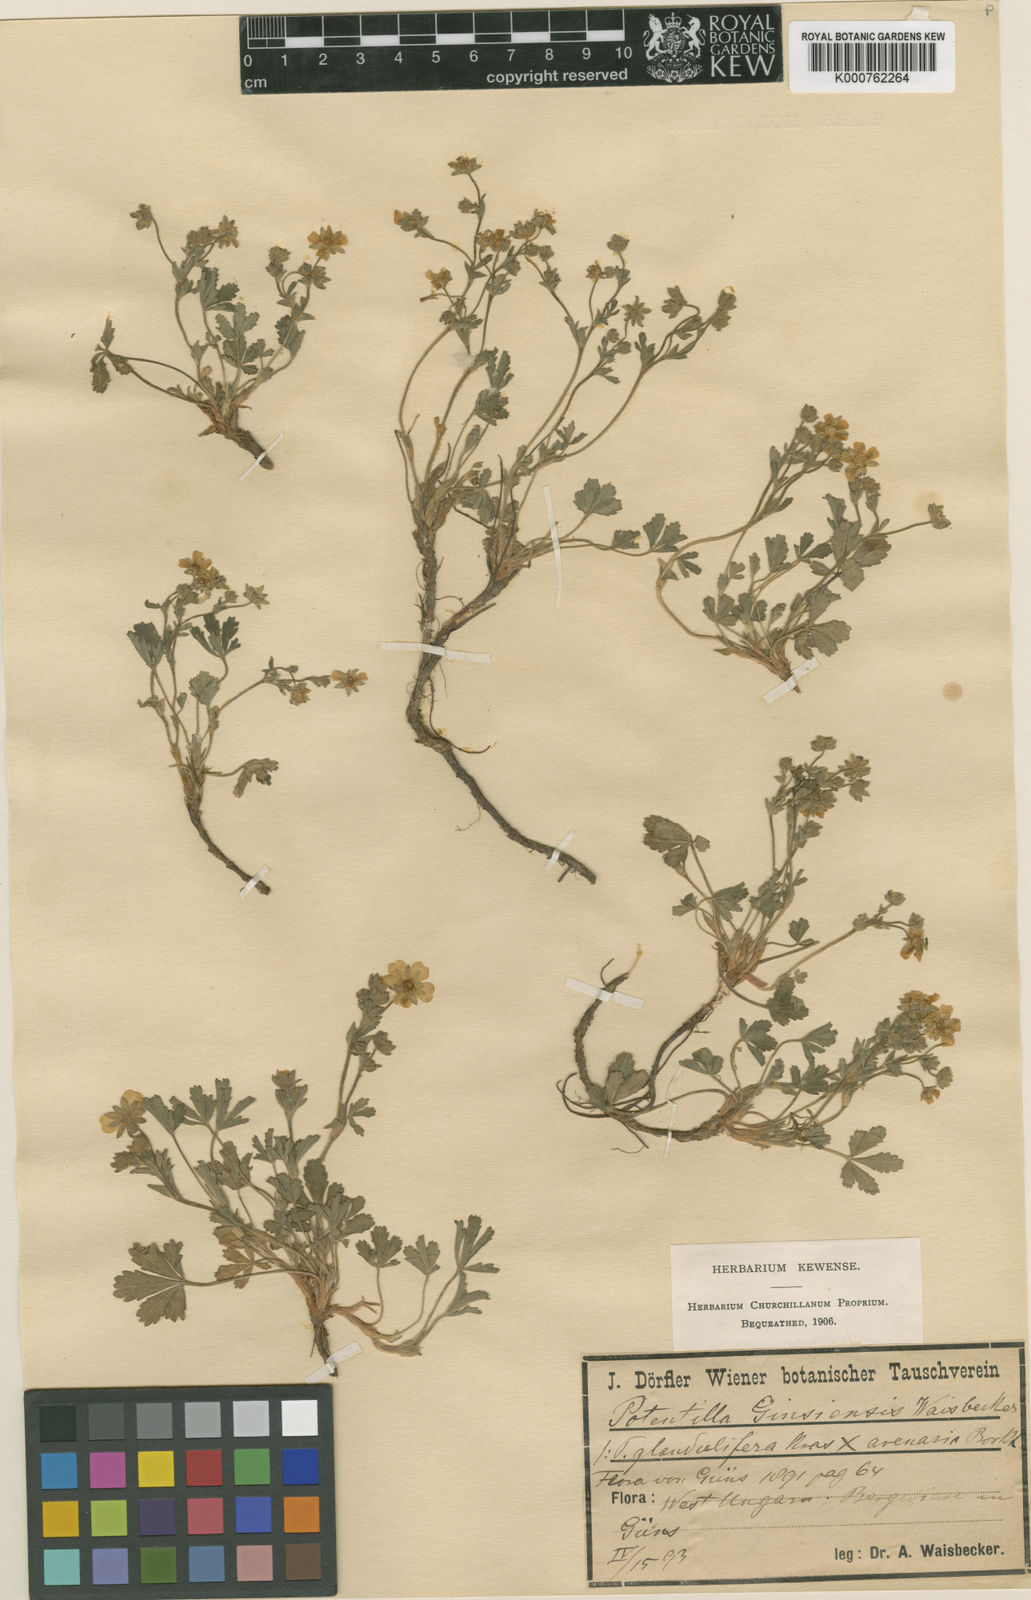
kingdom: Plantae
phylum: Tracheophyta
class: Magnoliopsida
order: Rosales
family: Rosaceae
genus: Potentilla
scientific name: Potentilla pusilla
